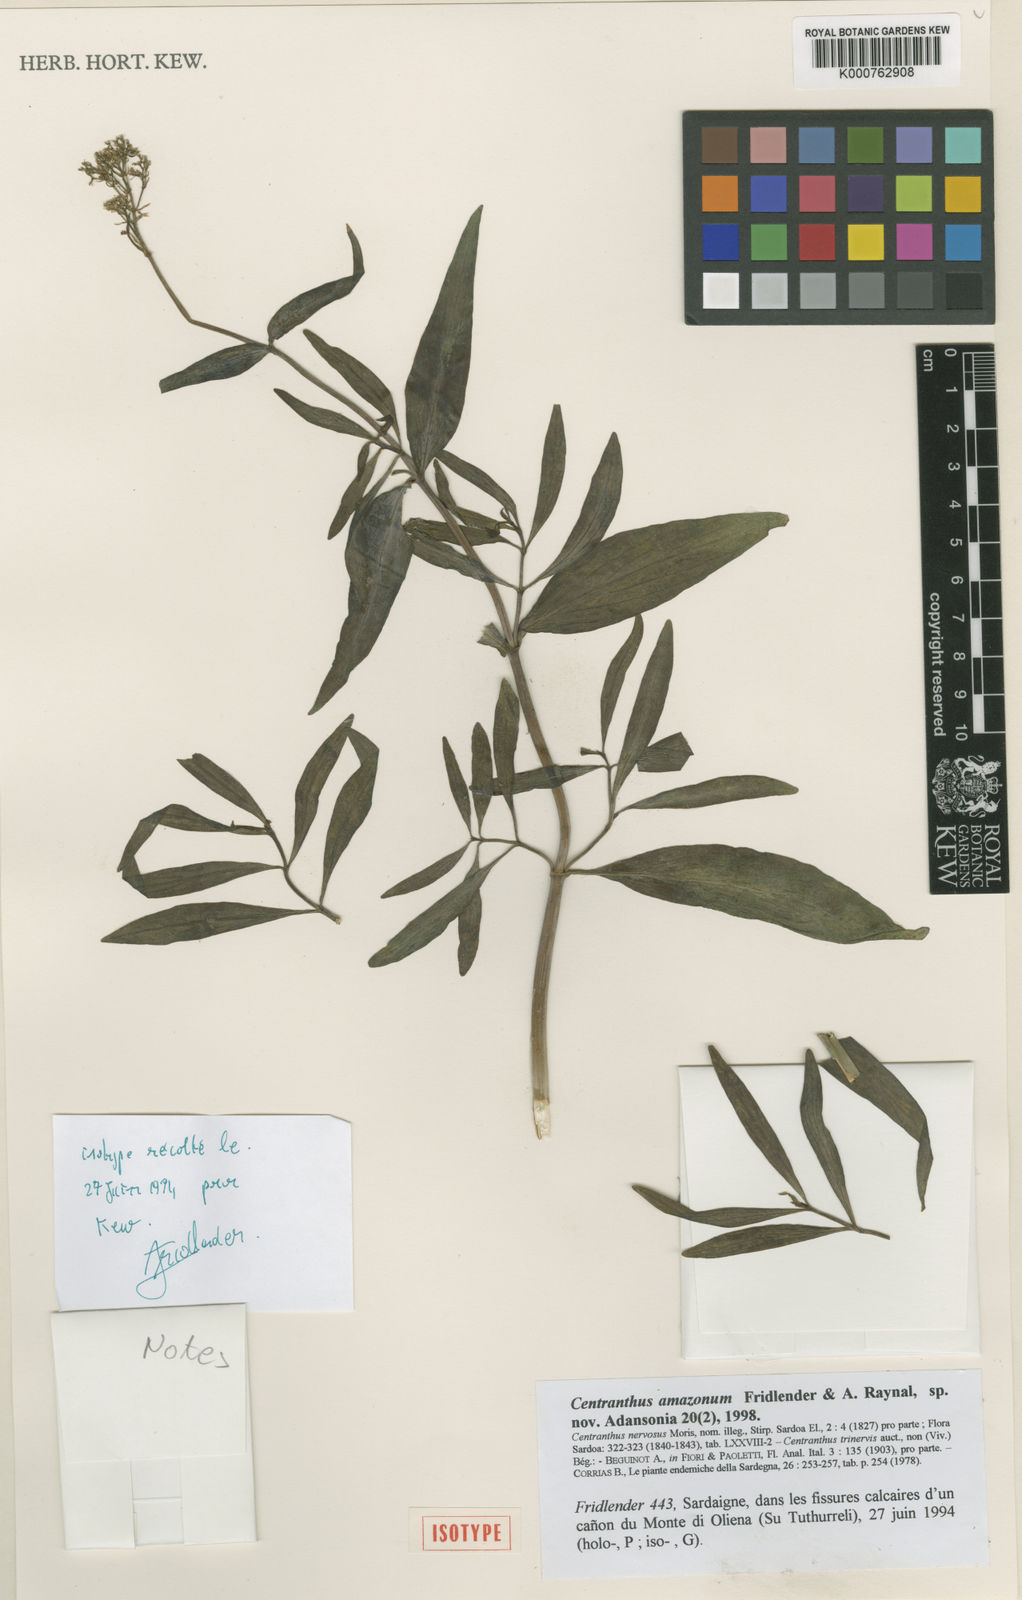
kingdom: Plantae
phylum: Tracheophyta
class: Magnoliopsida
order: Dipsacales
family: Caprifoliaceae
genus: Centranthus
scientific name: Centranthus amazonum
